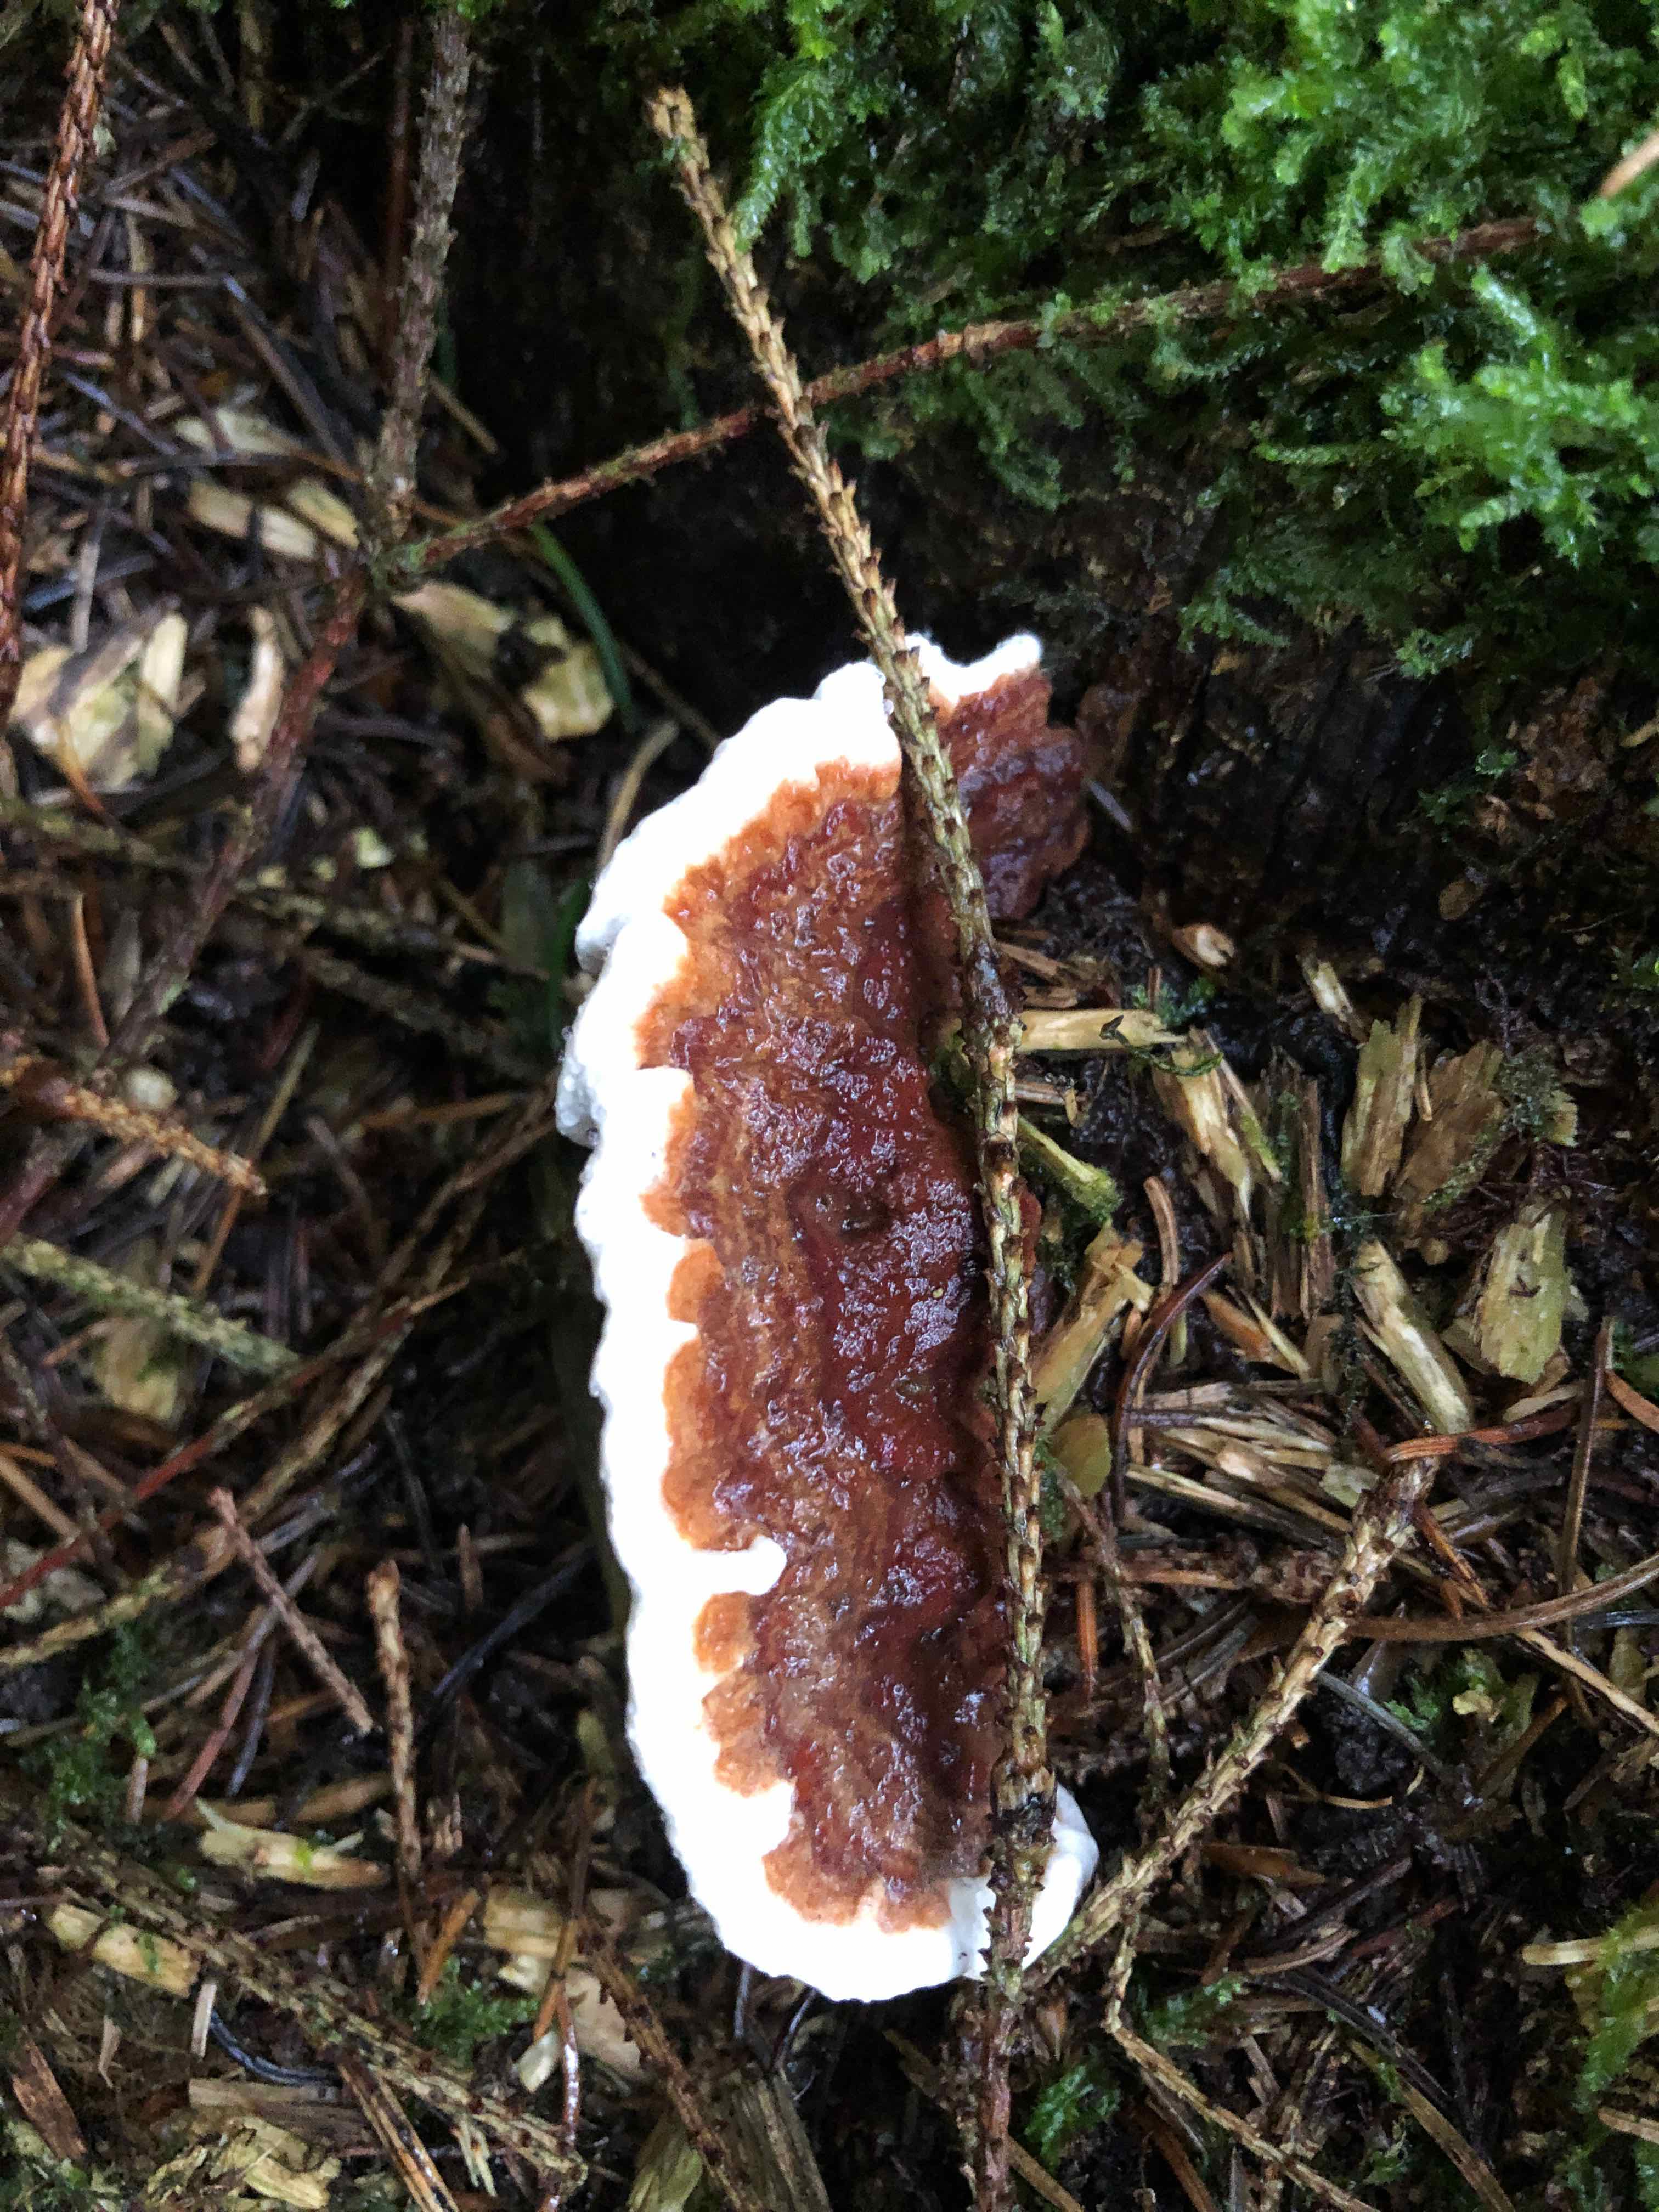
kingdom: Fungi
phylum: Basidiomycota
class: Agaricomycetes
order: Russulales
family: Bondarzewiaceae
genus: Heterobasidion
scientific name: Heterobasidion annosum
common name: almindelig rodfordærver
